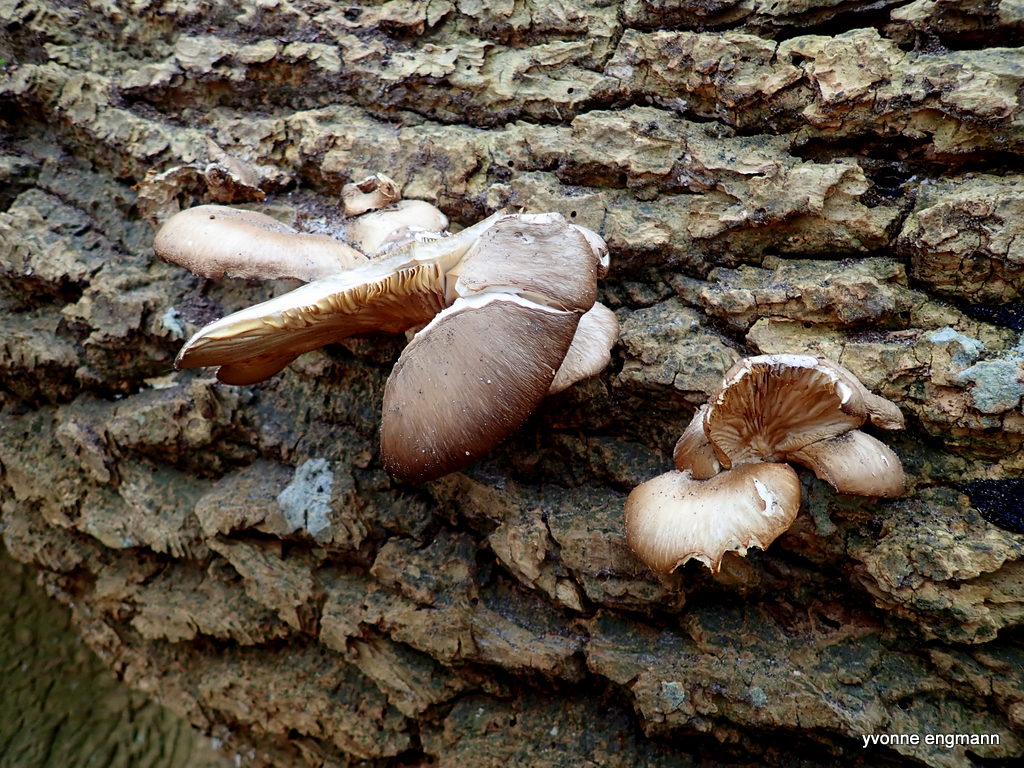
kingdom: Fungi
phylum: Basidiomycota
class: Agaricomycetes
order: Agaricales
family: Pleurotaceae
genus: Pleurotus
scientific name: Pleurotus ostreatus
